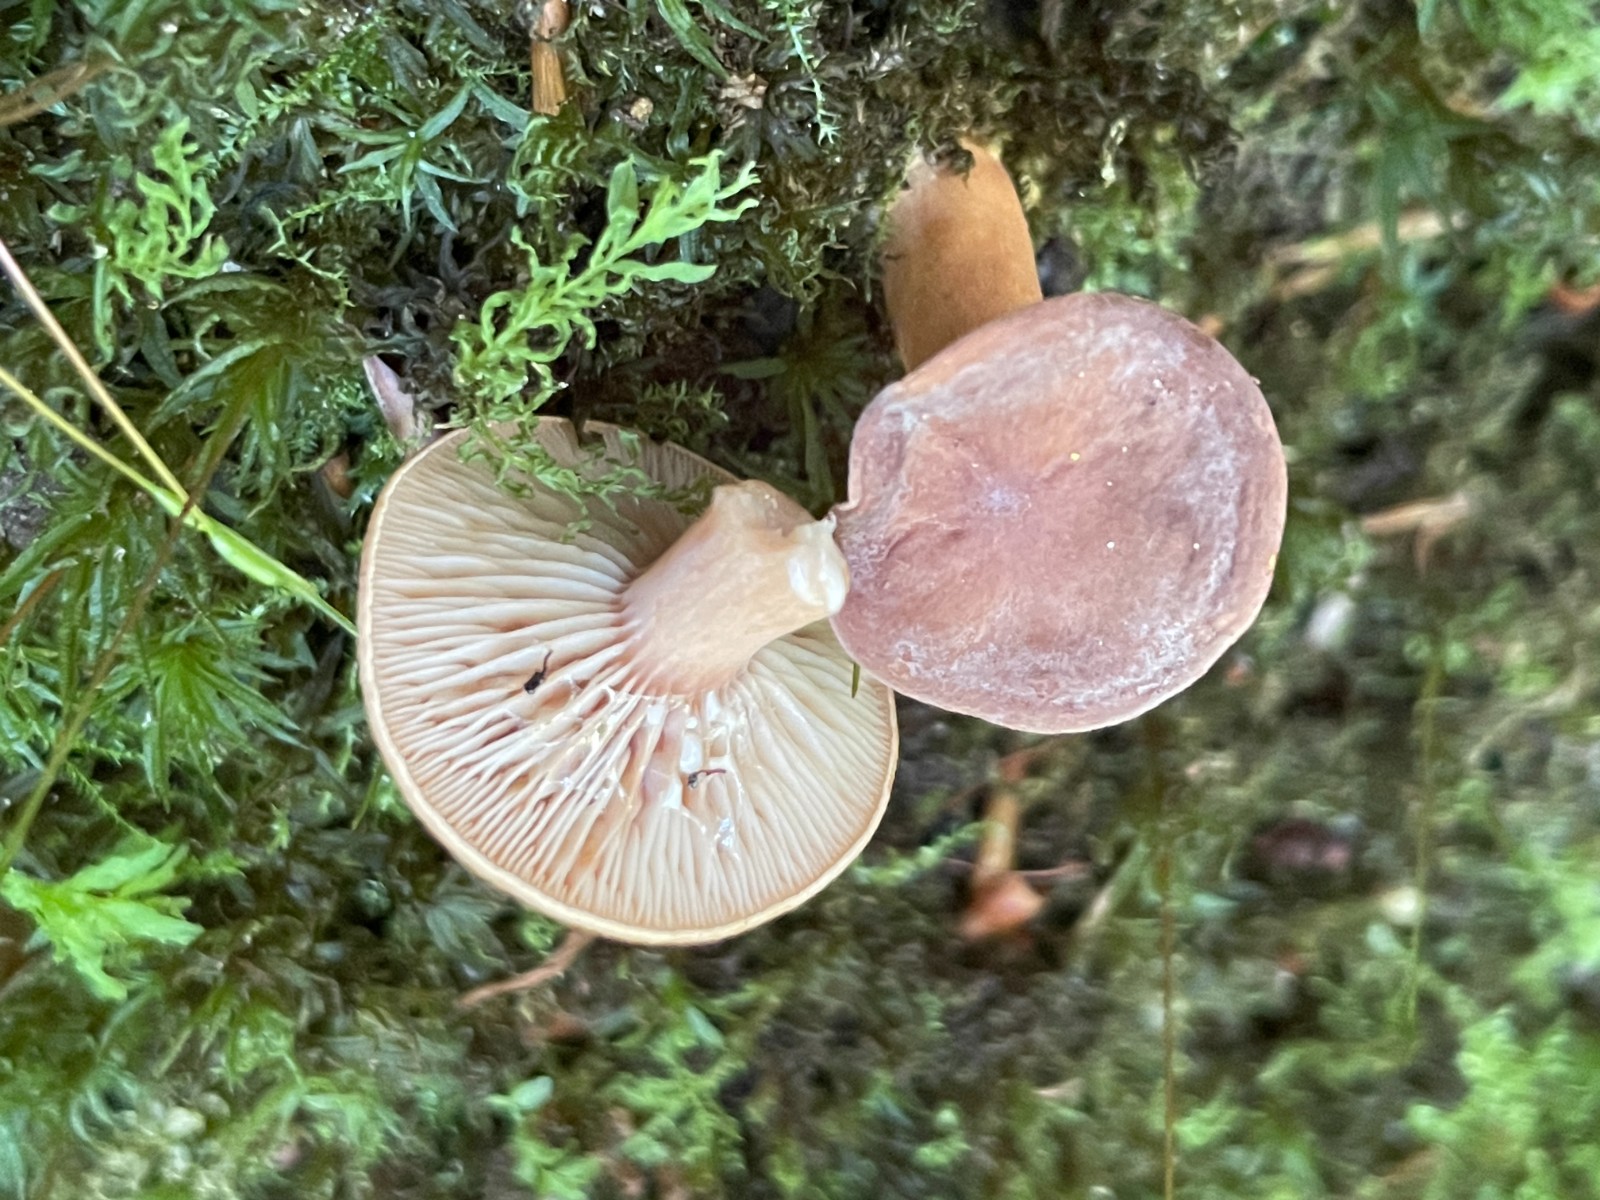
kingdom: Fungi
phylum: Basidiomycota
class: Agaricomycetes
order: Russulales
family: Russulaceae
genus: Lactarius
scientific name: Lactarius subdulcis
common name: sødlig mælkehat
